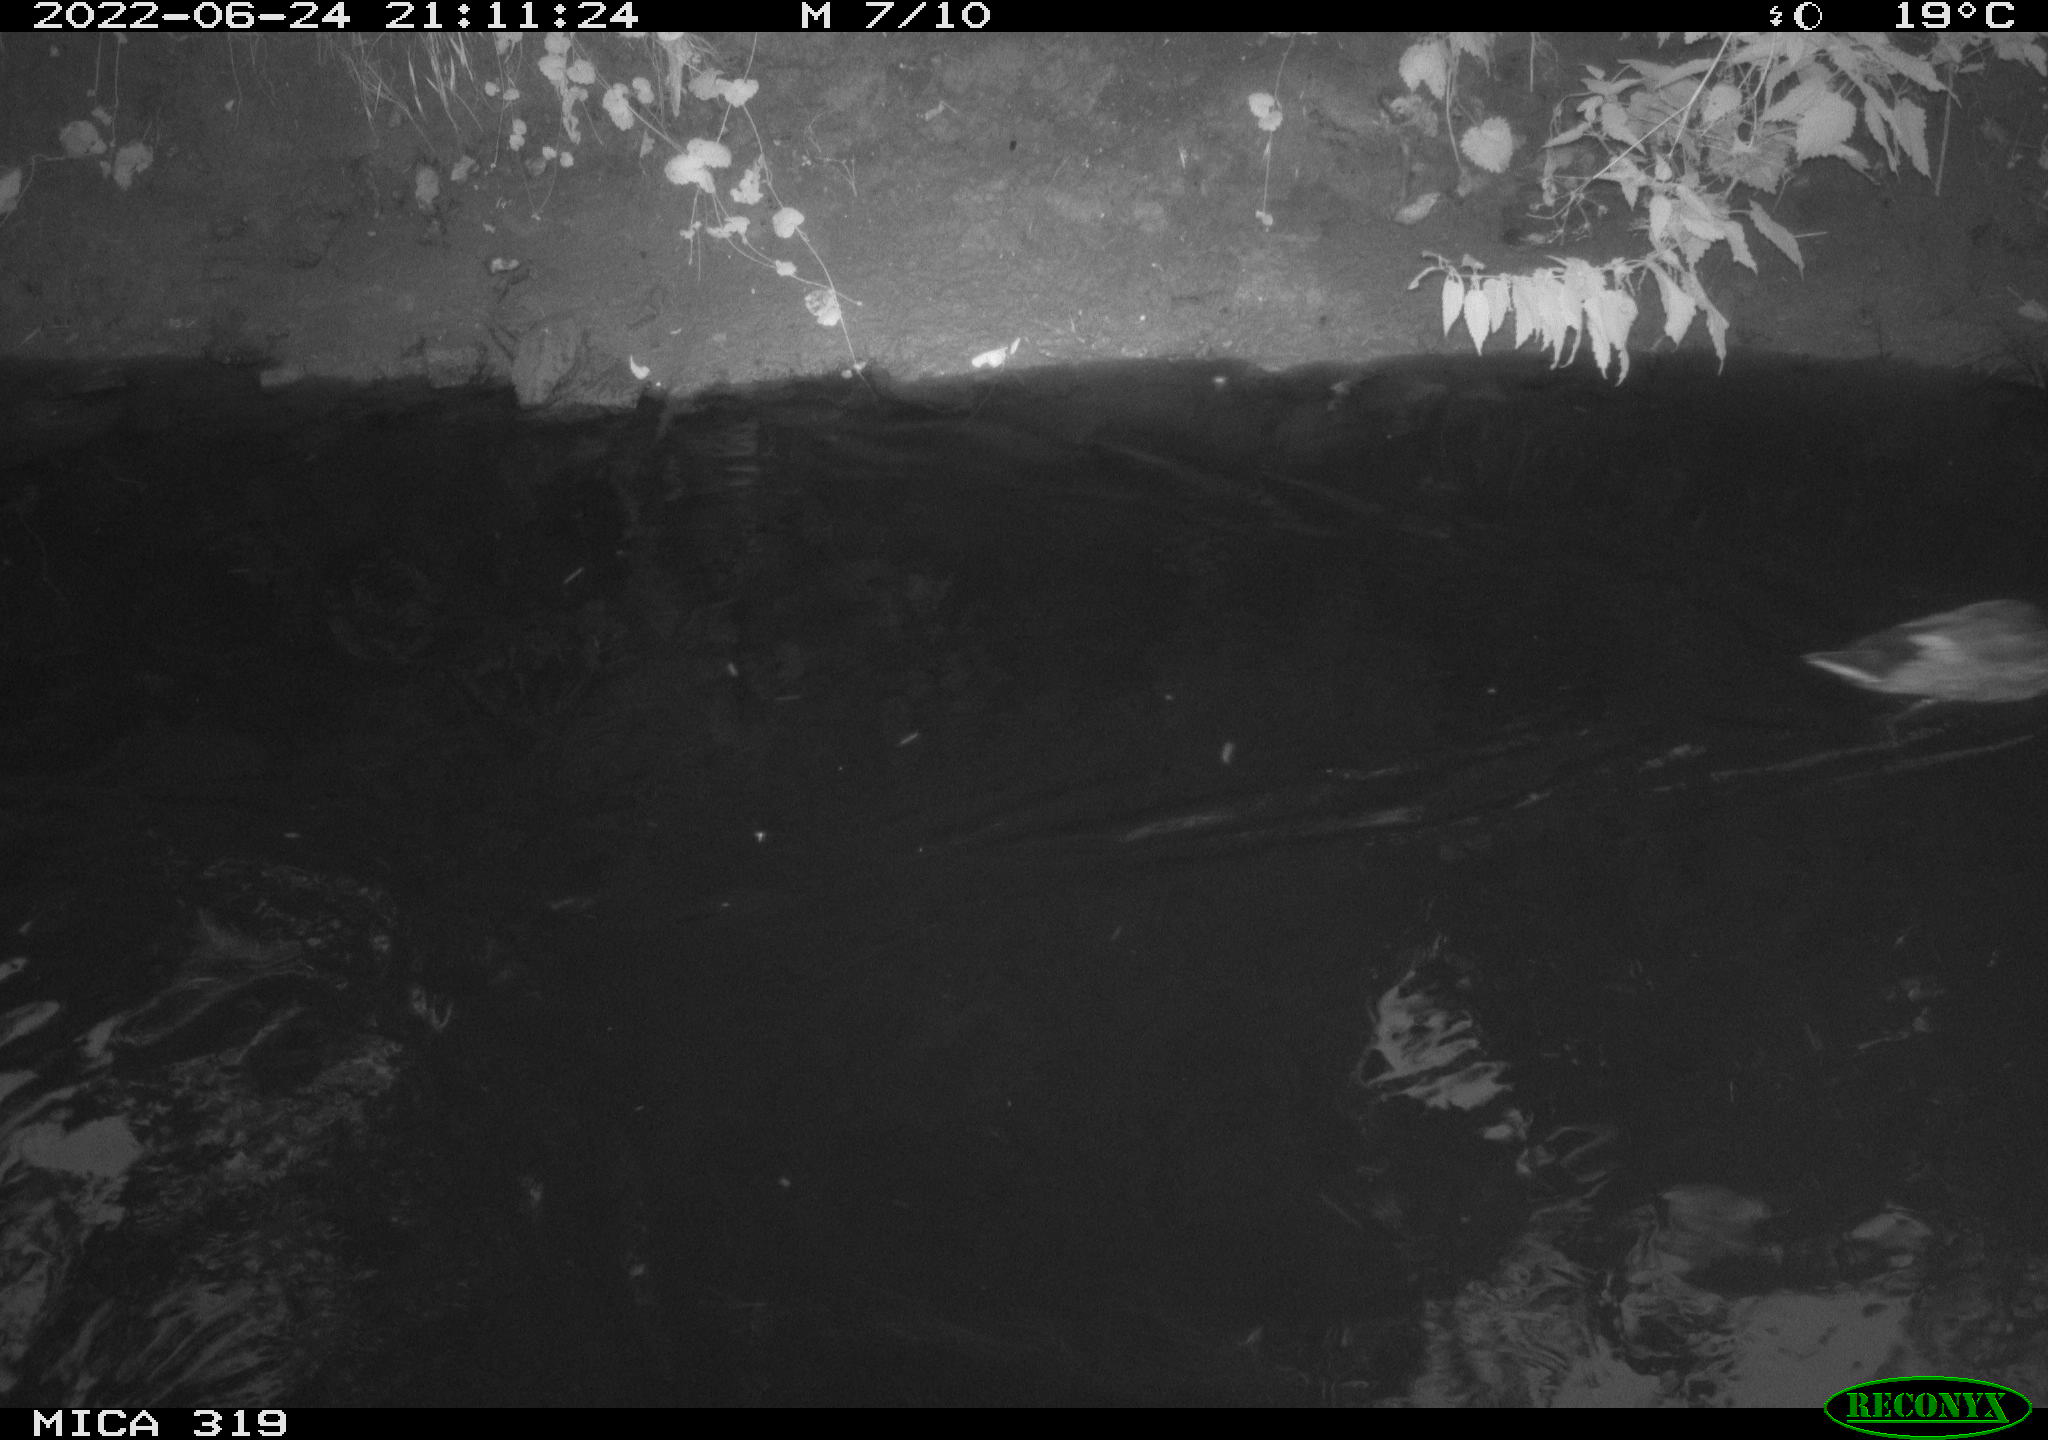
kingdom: Animalia
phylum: Chordata
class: Aves
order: Anseriformes
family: Anatidae
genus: Anas
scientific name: Anas platyrhynchos
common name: Mallard
